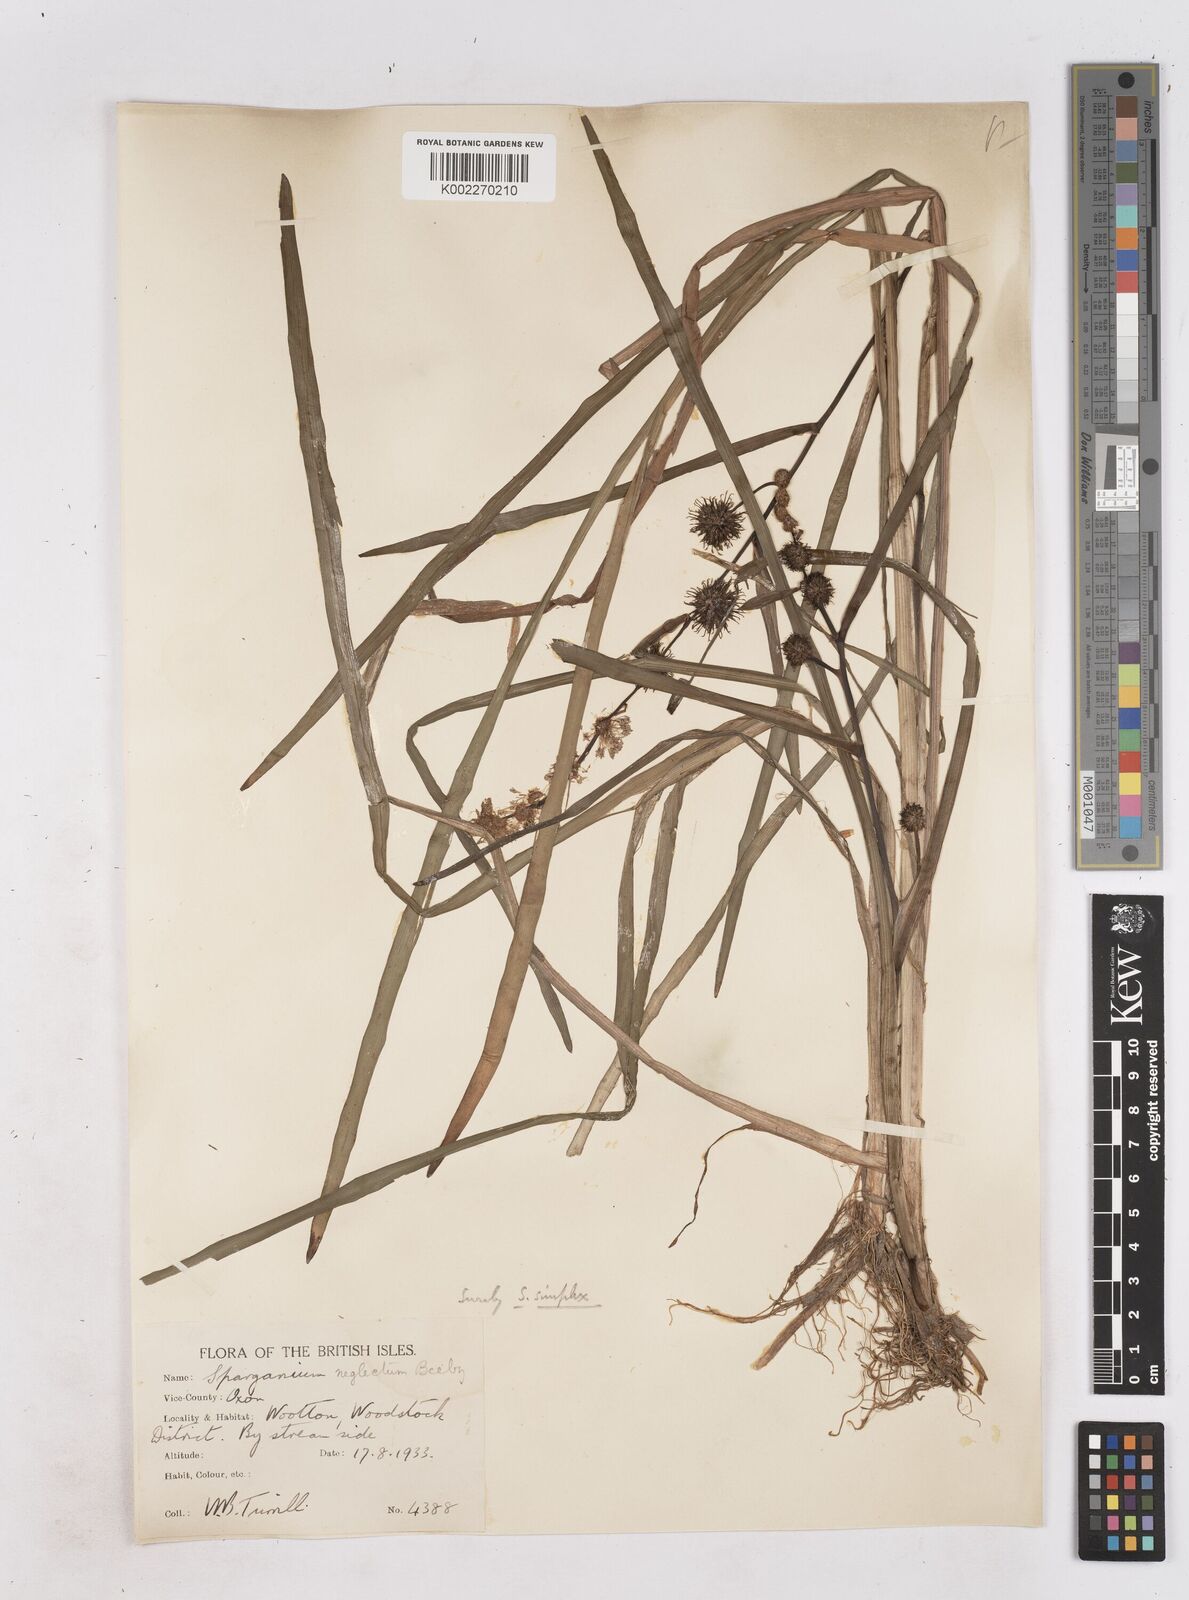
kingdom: Plantae
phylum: Tracheophyta
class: Liliopsida
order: Poales
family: Typhaceae
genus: Sparganium
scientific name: Sparganium emersum
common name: Unbranched bur-reed
